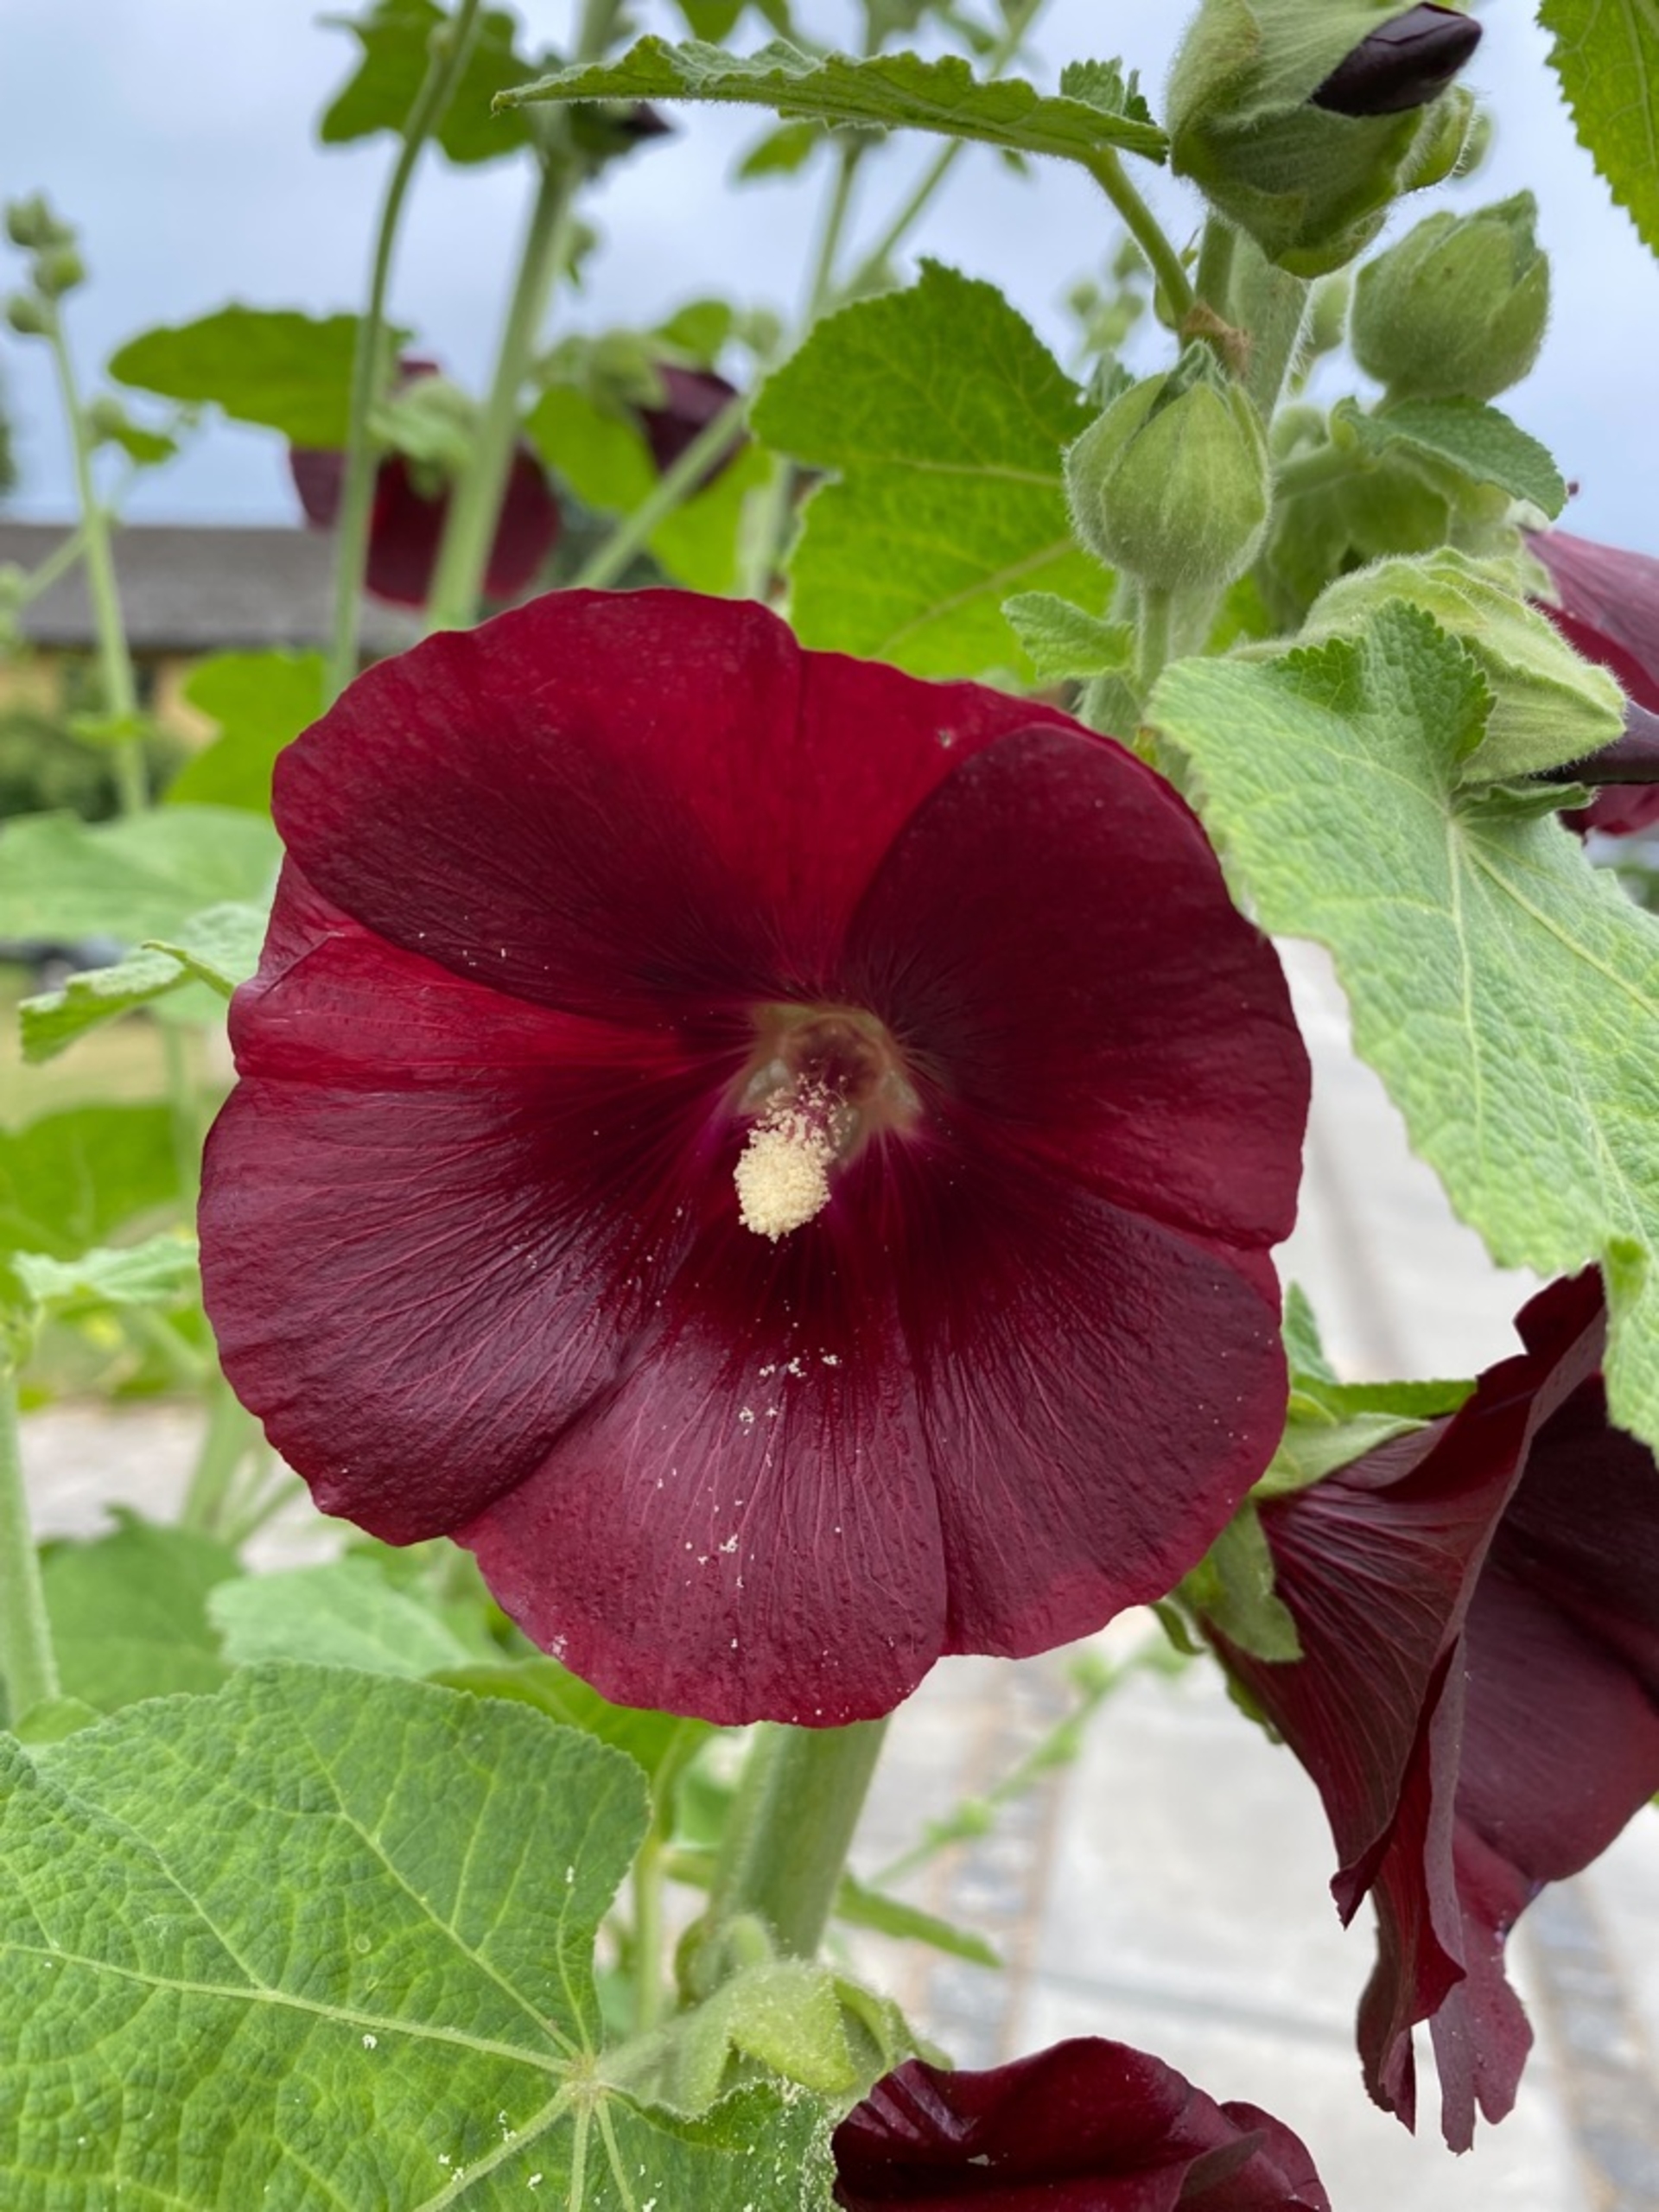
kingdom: Plantae
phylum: Tracheophyta
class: Magnoliopsida
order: Malvales
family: Malvaceae
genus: Alcea
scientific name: Alcea rosea
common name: Have-stokrose
